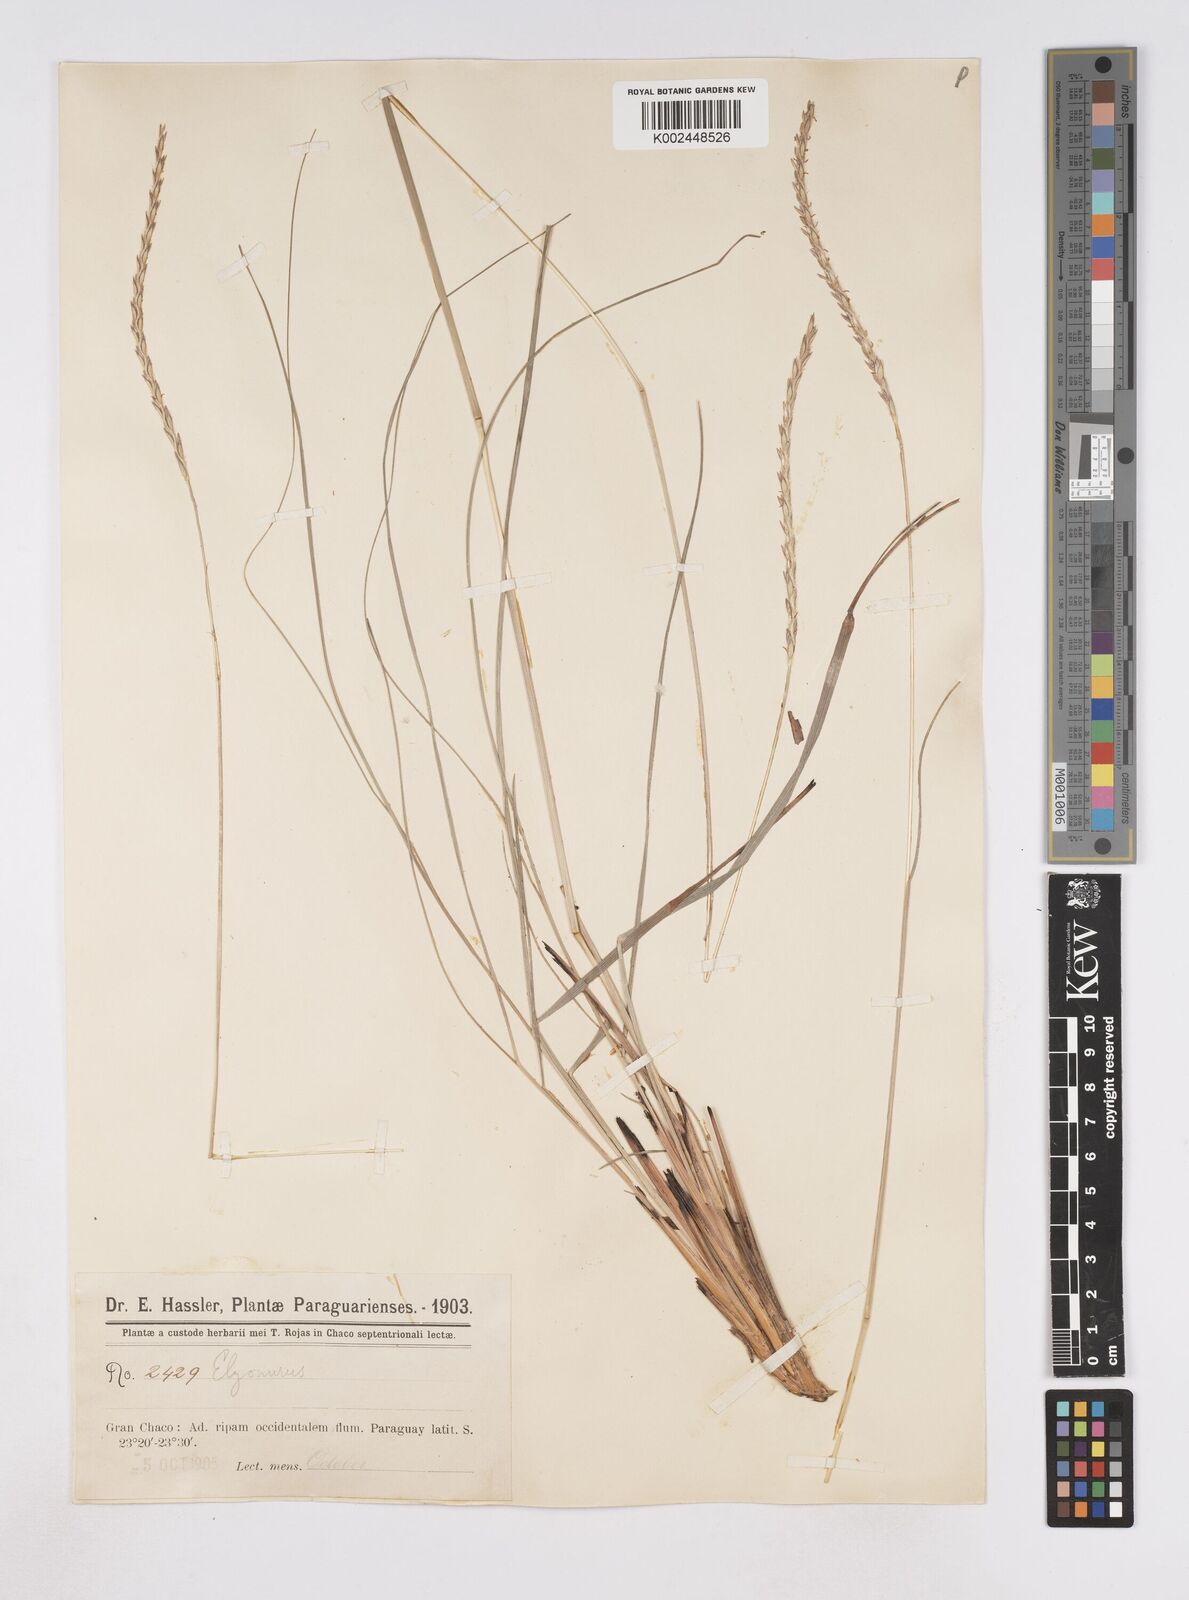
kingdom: Plantae
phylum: Tracheophyta
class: Liliopsida
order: Poales
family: Poaceae
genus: Elionurus
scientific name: Elionurus muticus
